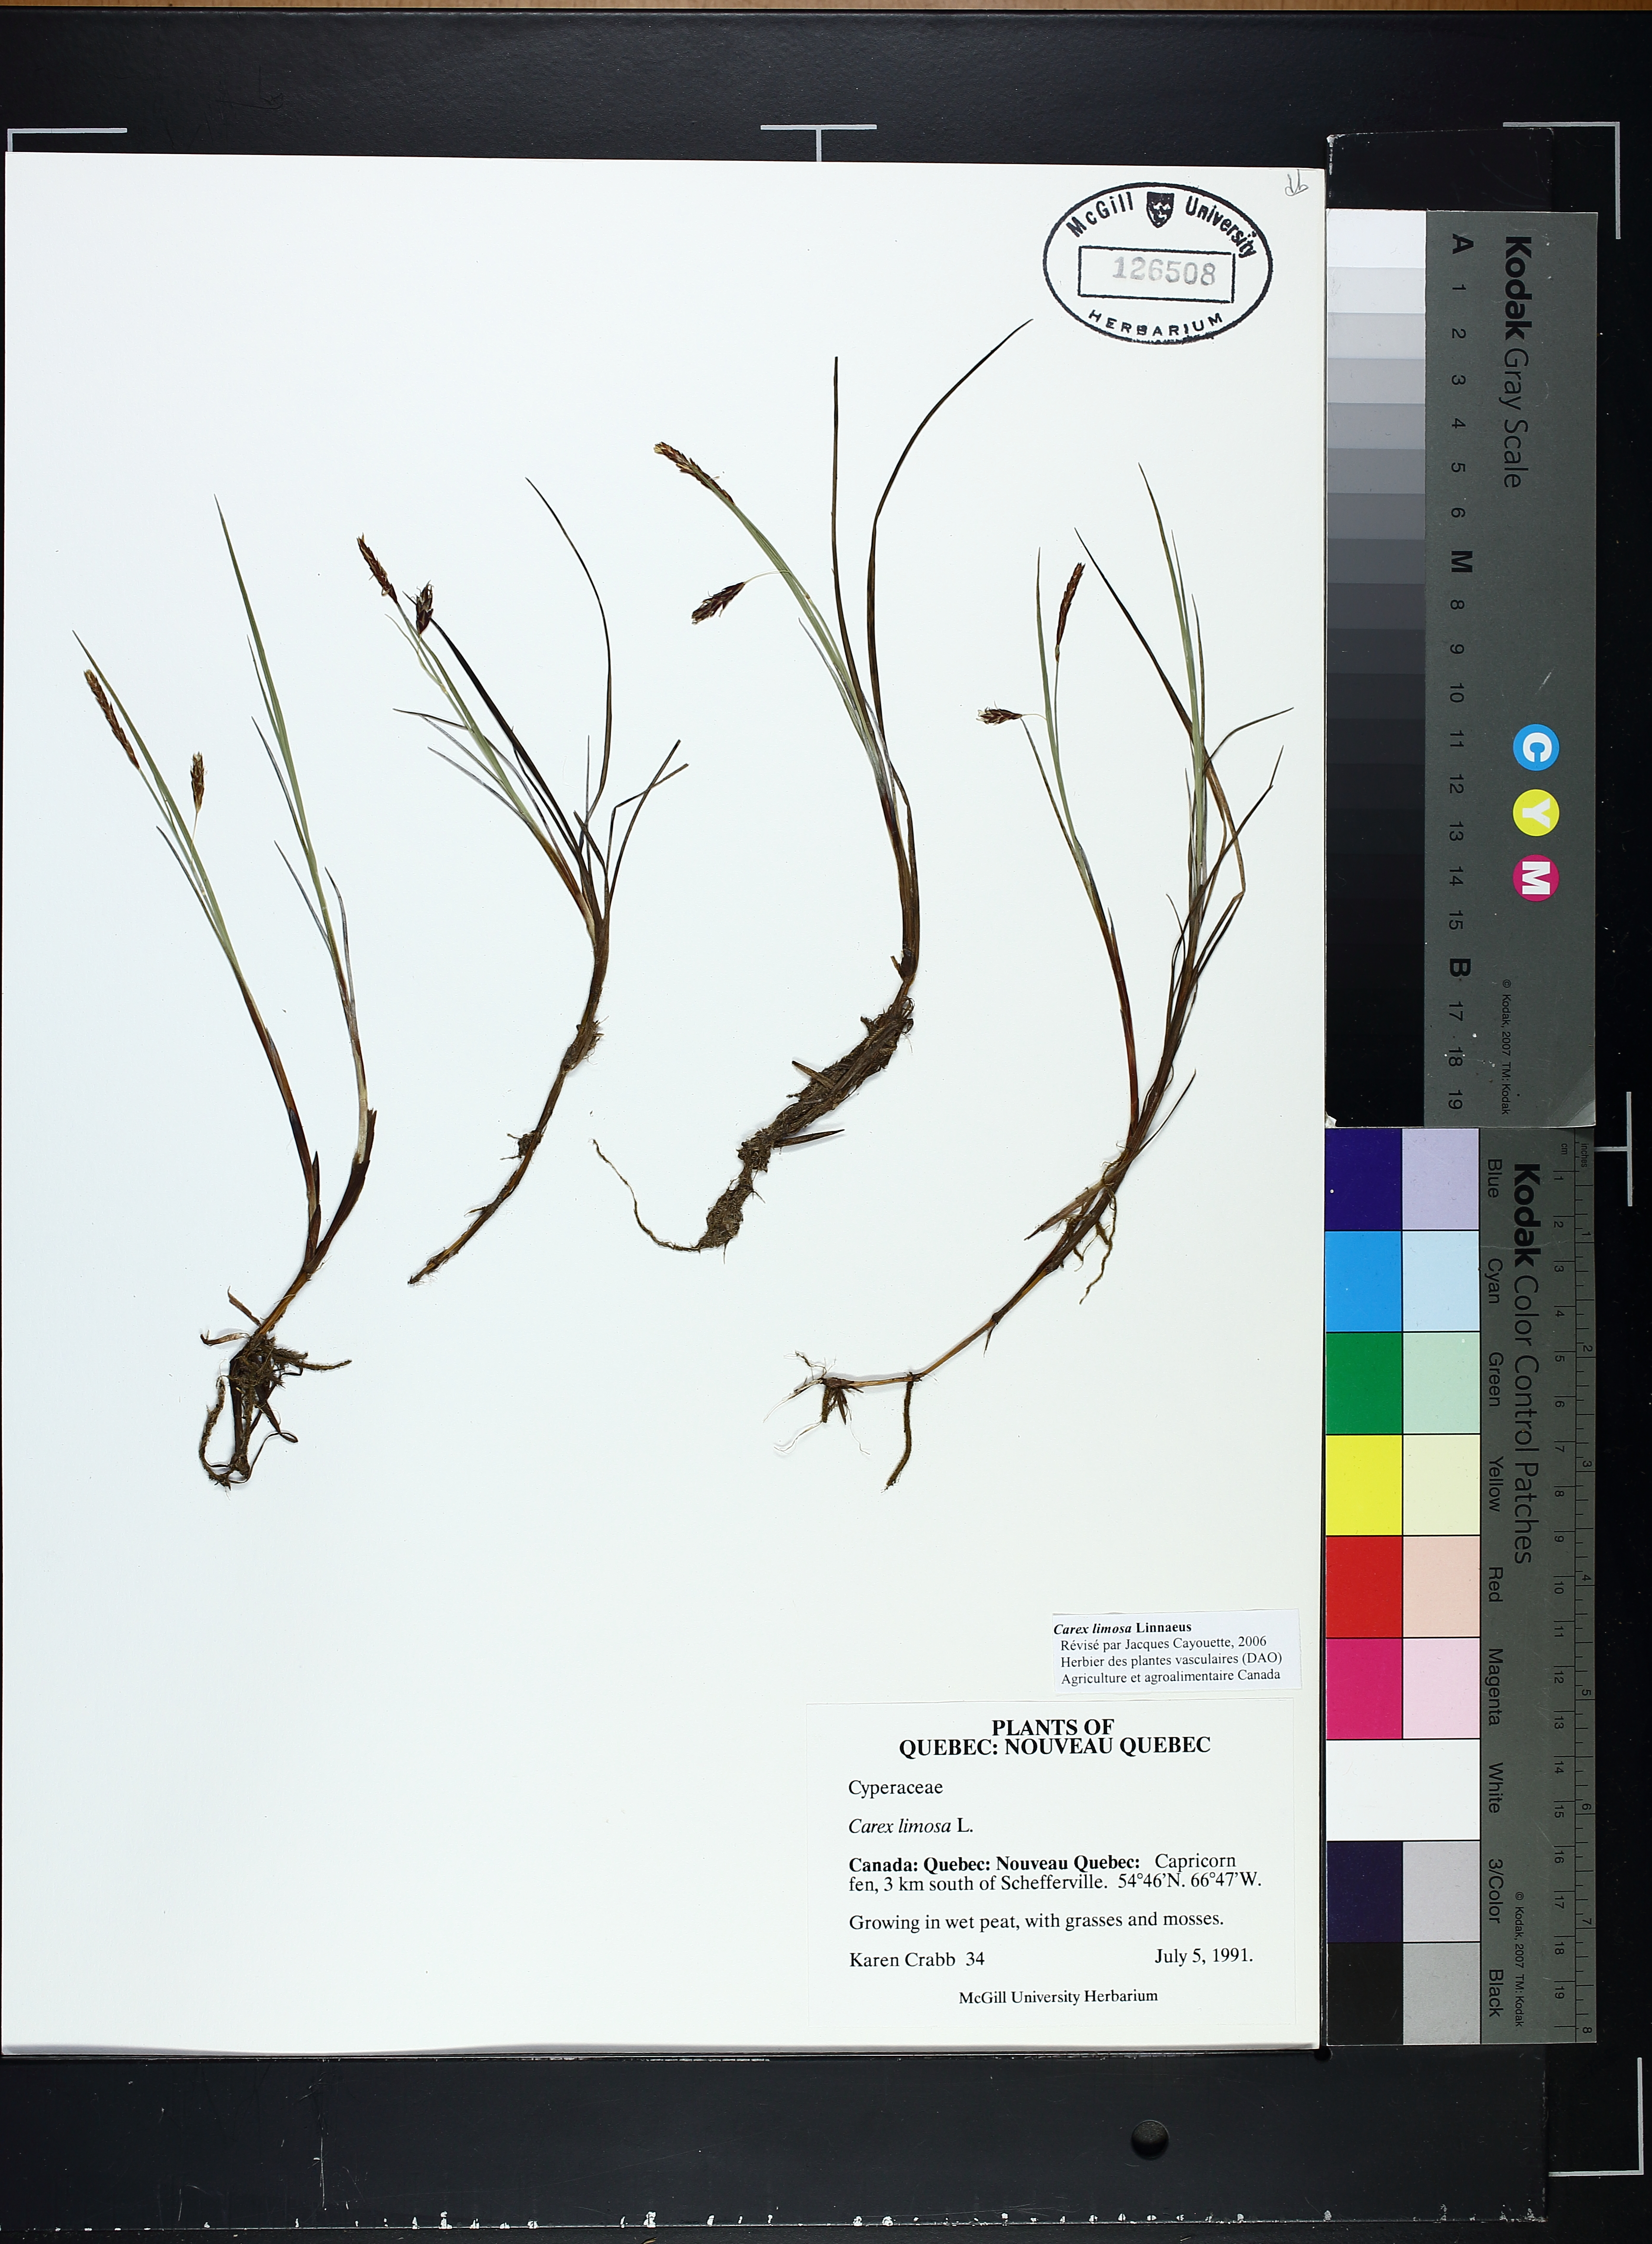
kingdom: Plantae
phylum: Tracheophyta
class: Liliopsida
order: Poales
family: Cyperaceae
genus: Carex
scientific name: Carex limosa
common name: Bog sedge
